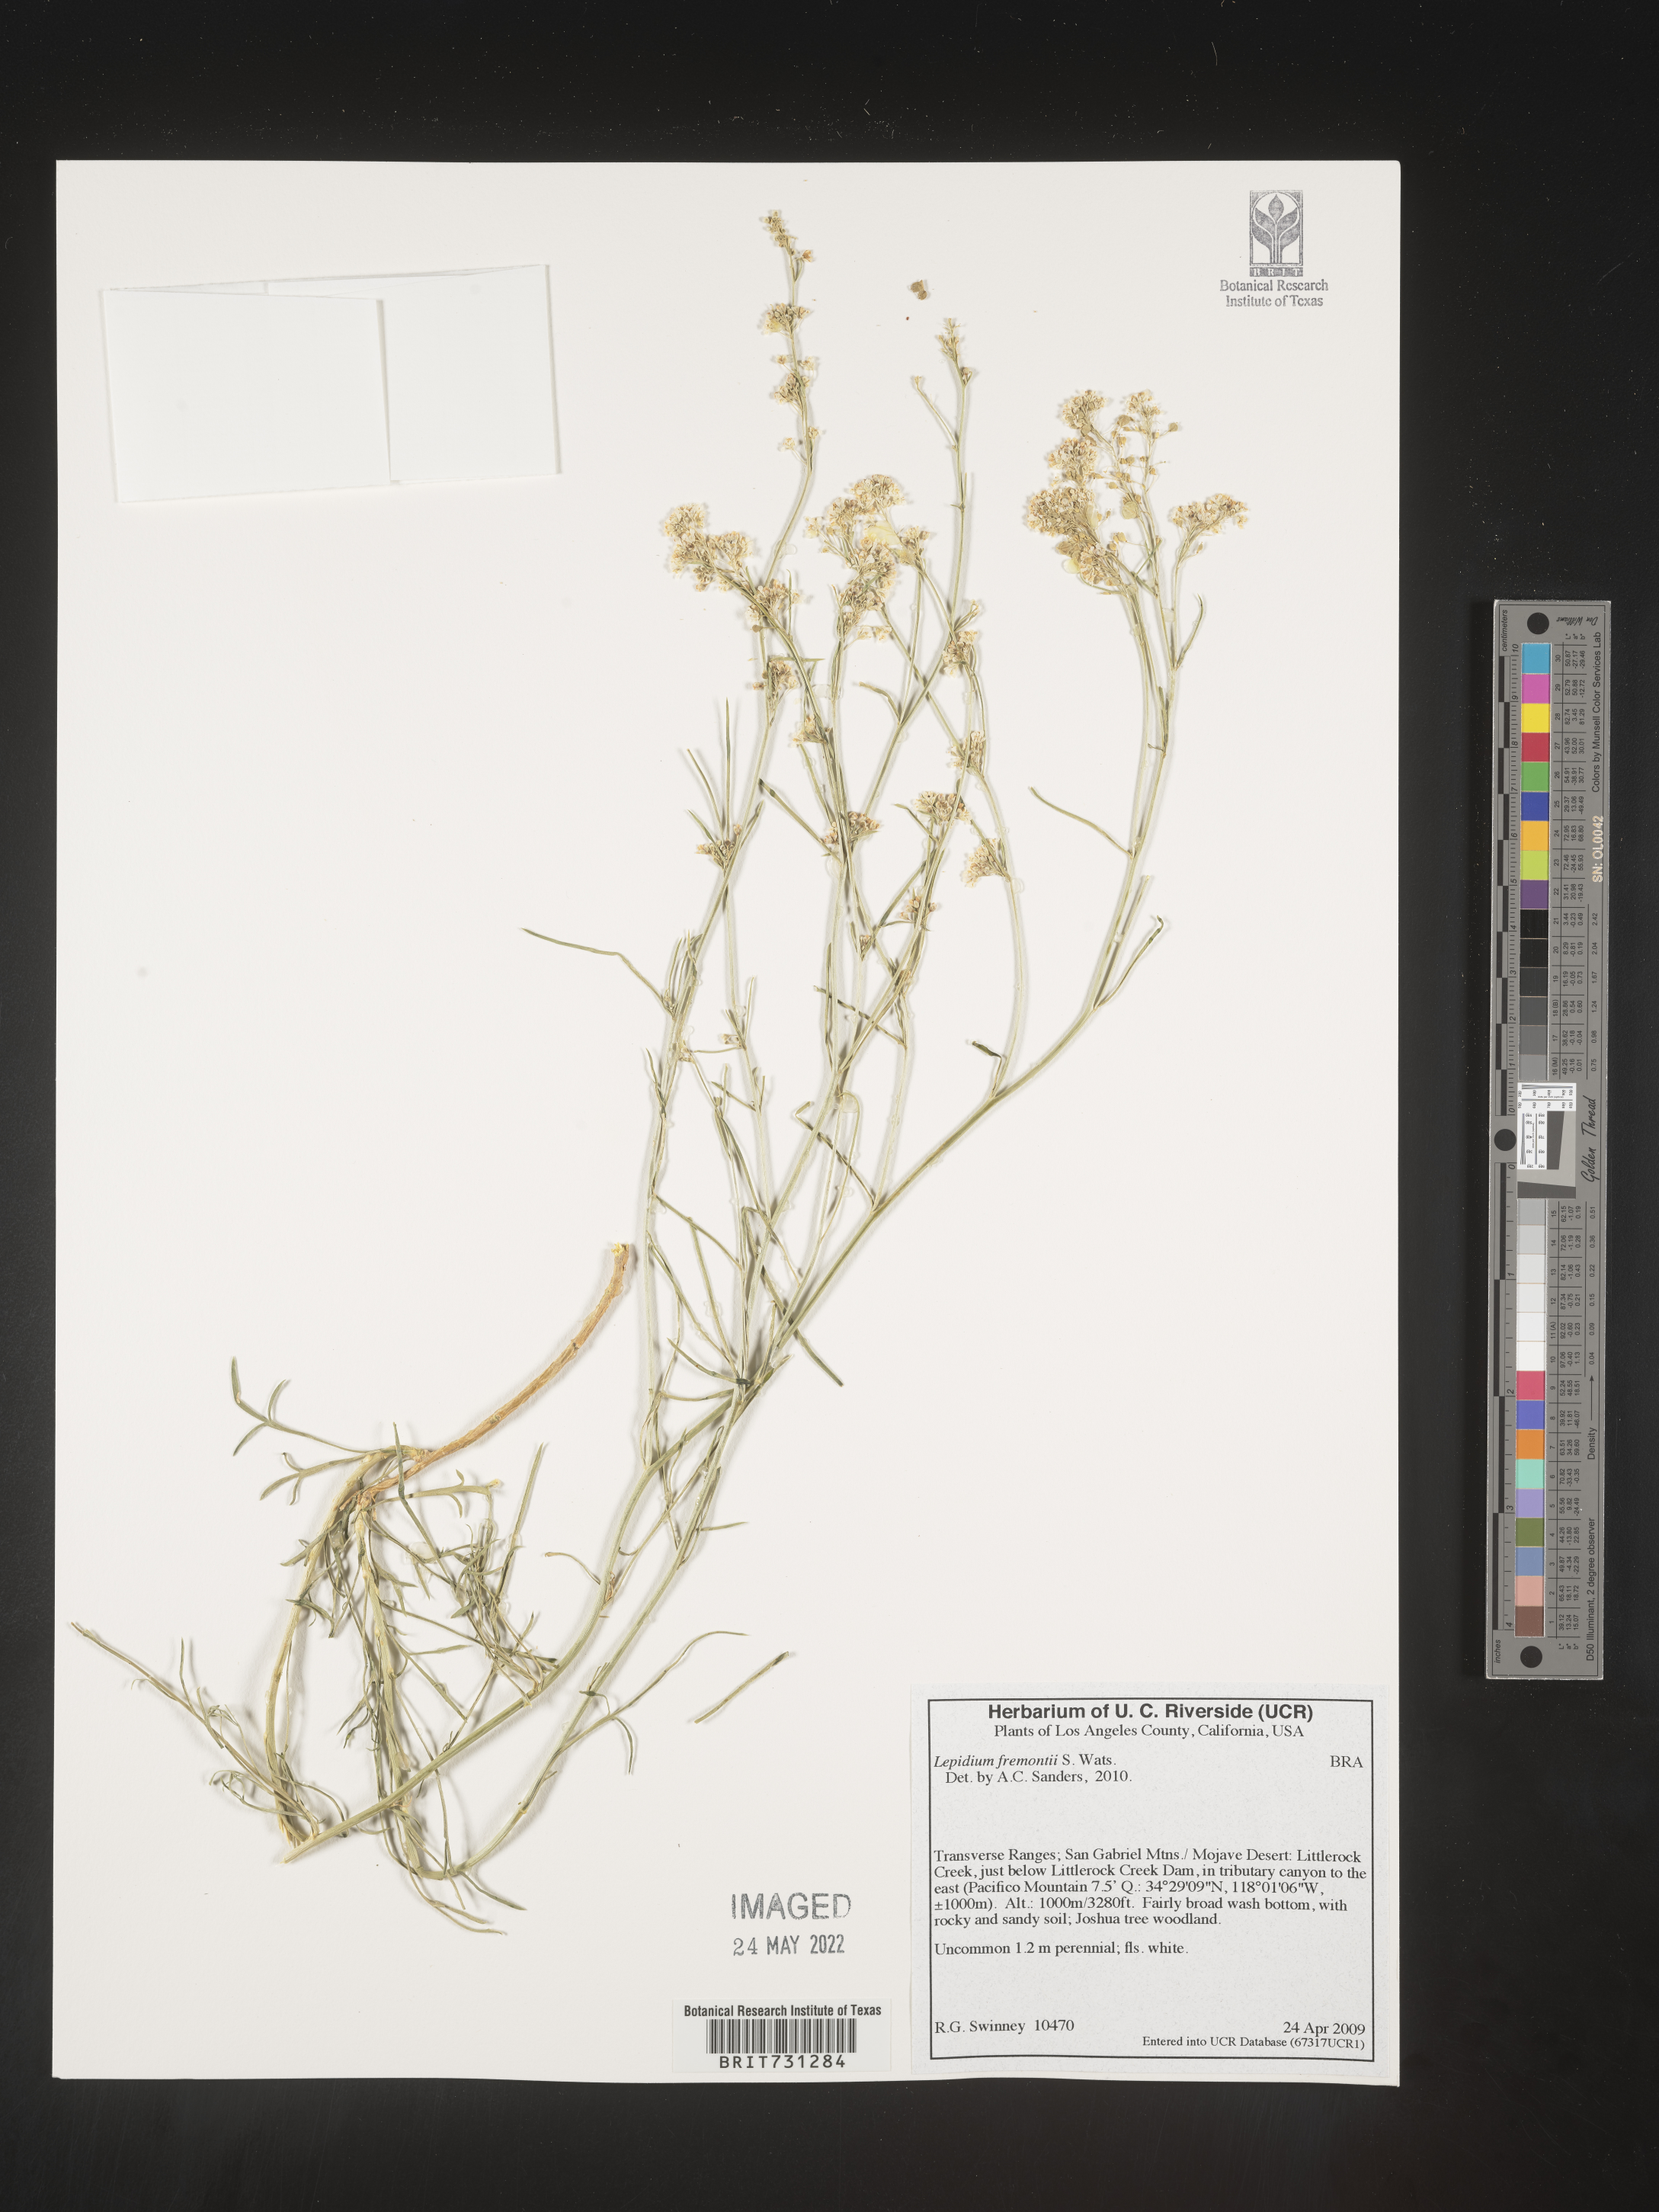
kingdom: Plantae
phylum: Tracheophyta
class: Magnoliopsida
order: Asterales
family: Asteraceae
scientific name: Asteraceae
